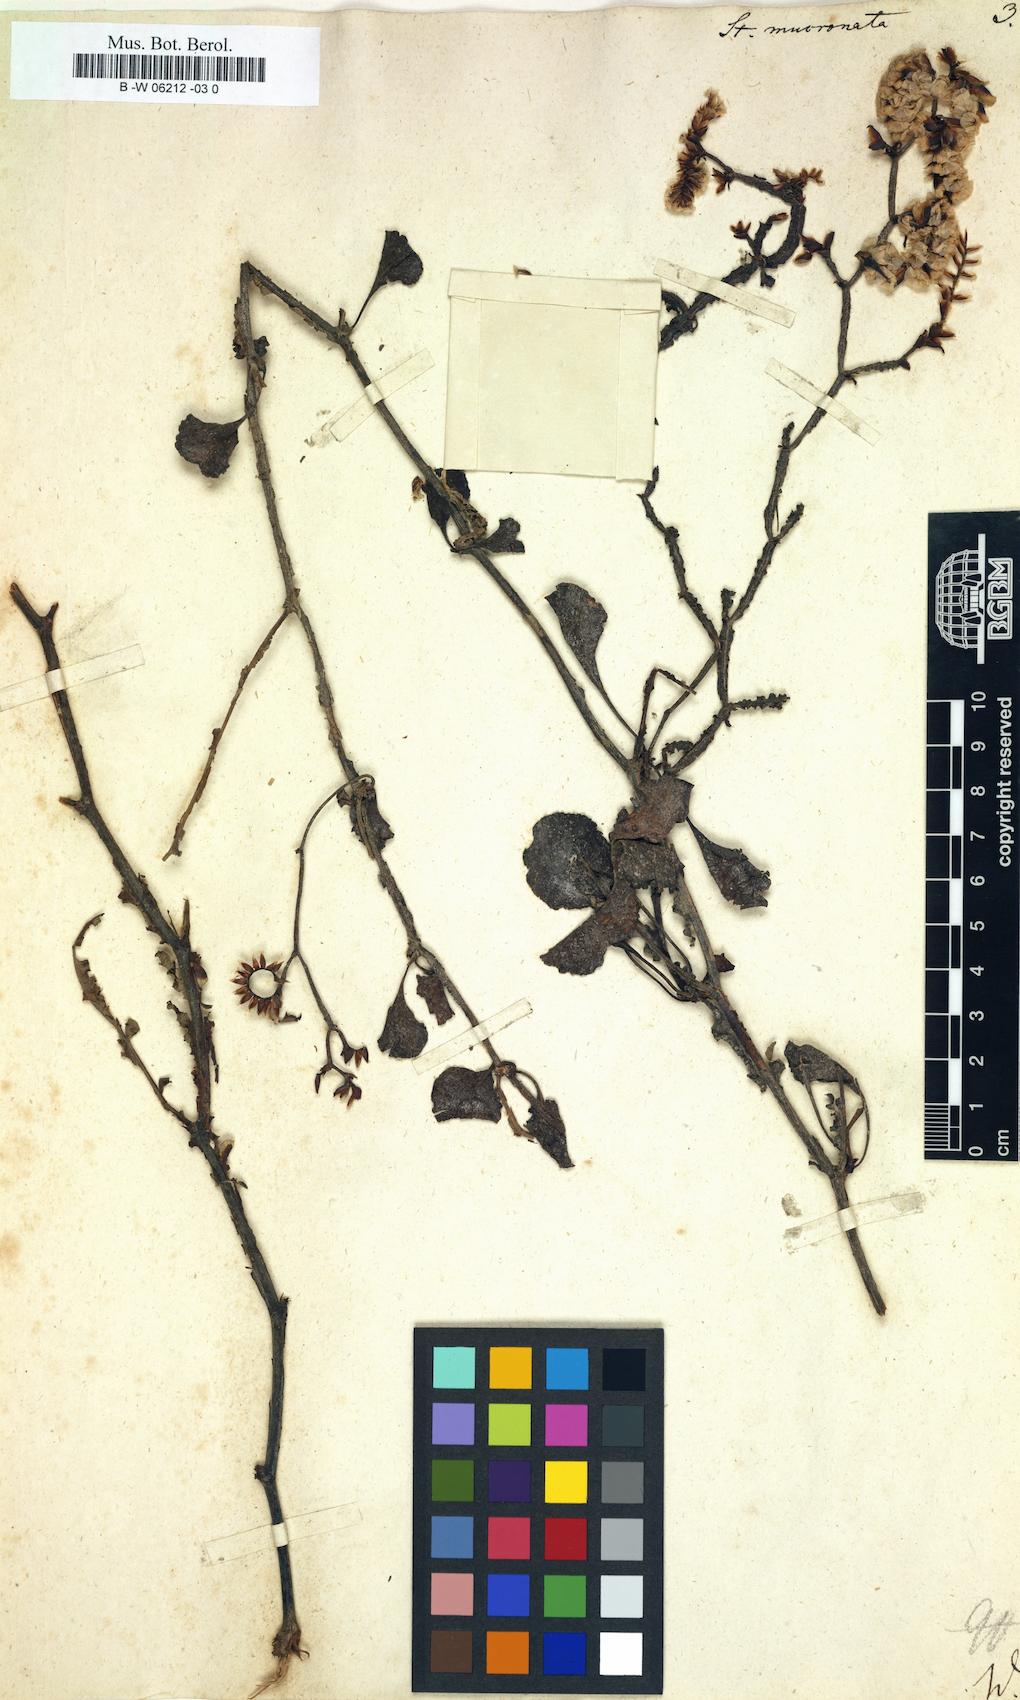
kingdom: Plantae
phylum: Tracheophyta
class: Magnoliopsida
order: Caryophyllales
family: Plumbaginaceae
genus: Limonium
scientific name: Limonium mucronatum
